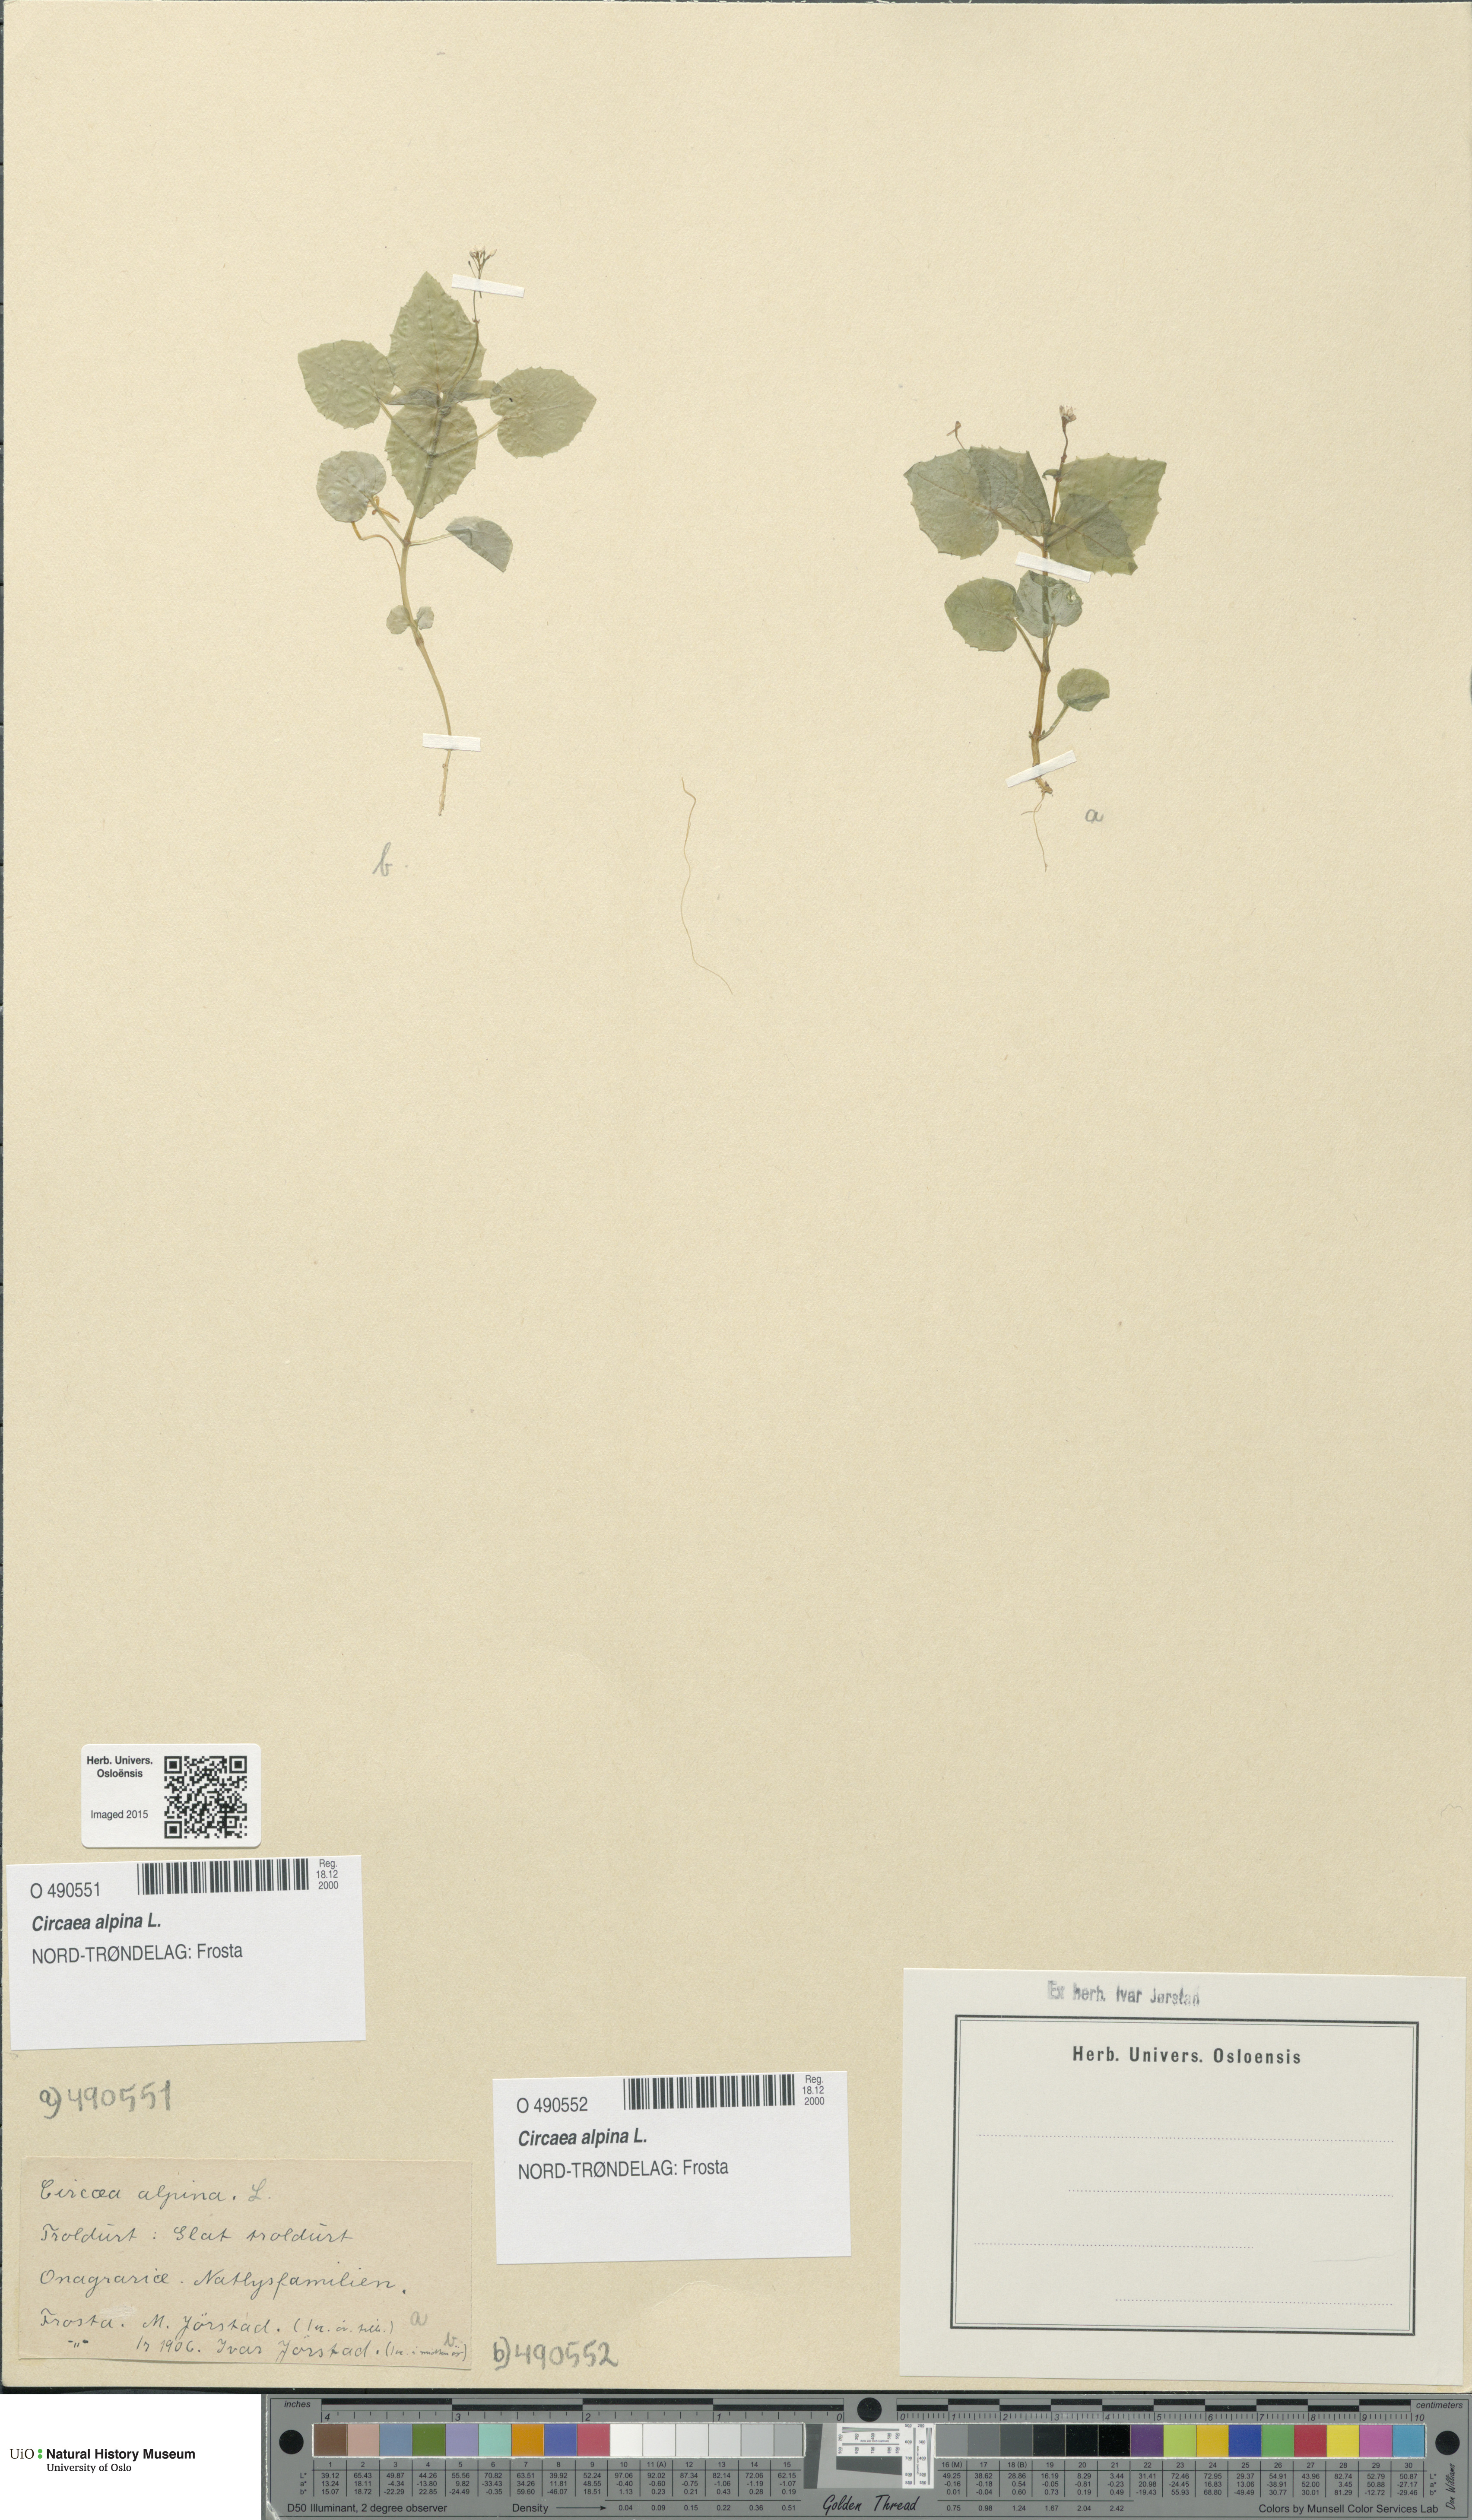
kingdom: Plantae
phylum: Tracheophyta
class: Magnoliopsida
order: Myrtales
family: Onagraceae
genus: Circaea
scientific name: Circaea alpina
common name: Alpine enchanter's-nightshade
